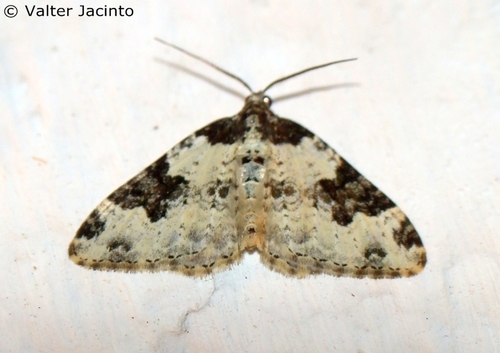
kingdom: Animalia
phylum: Arthropoda
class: Insecta
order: Lepidoptera
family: Geometridae
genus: Xanthorhoe
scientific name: Xanthorhoe fluctuata
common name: Garden carpet
